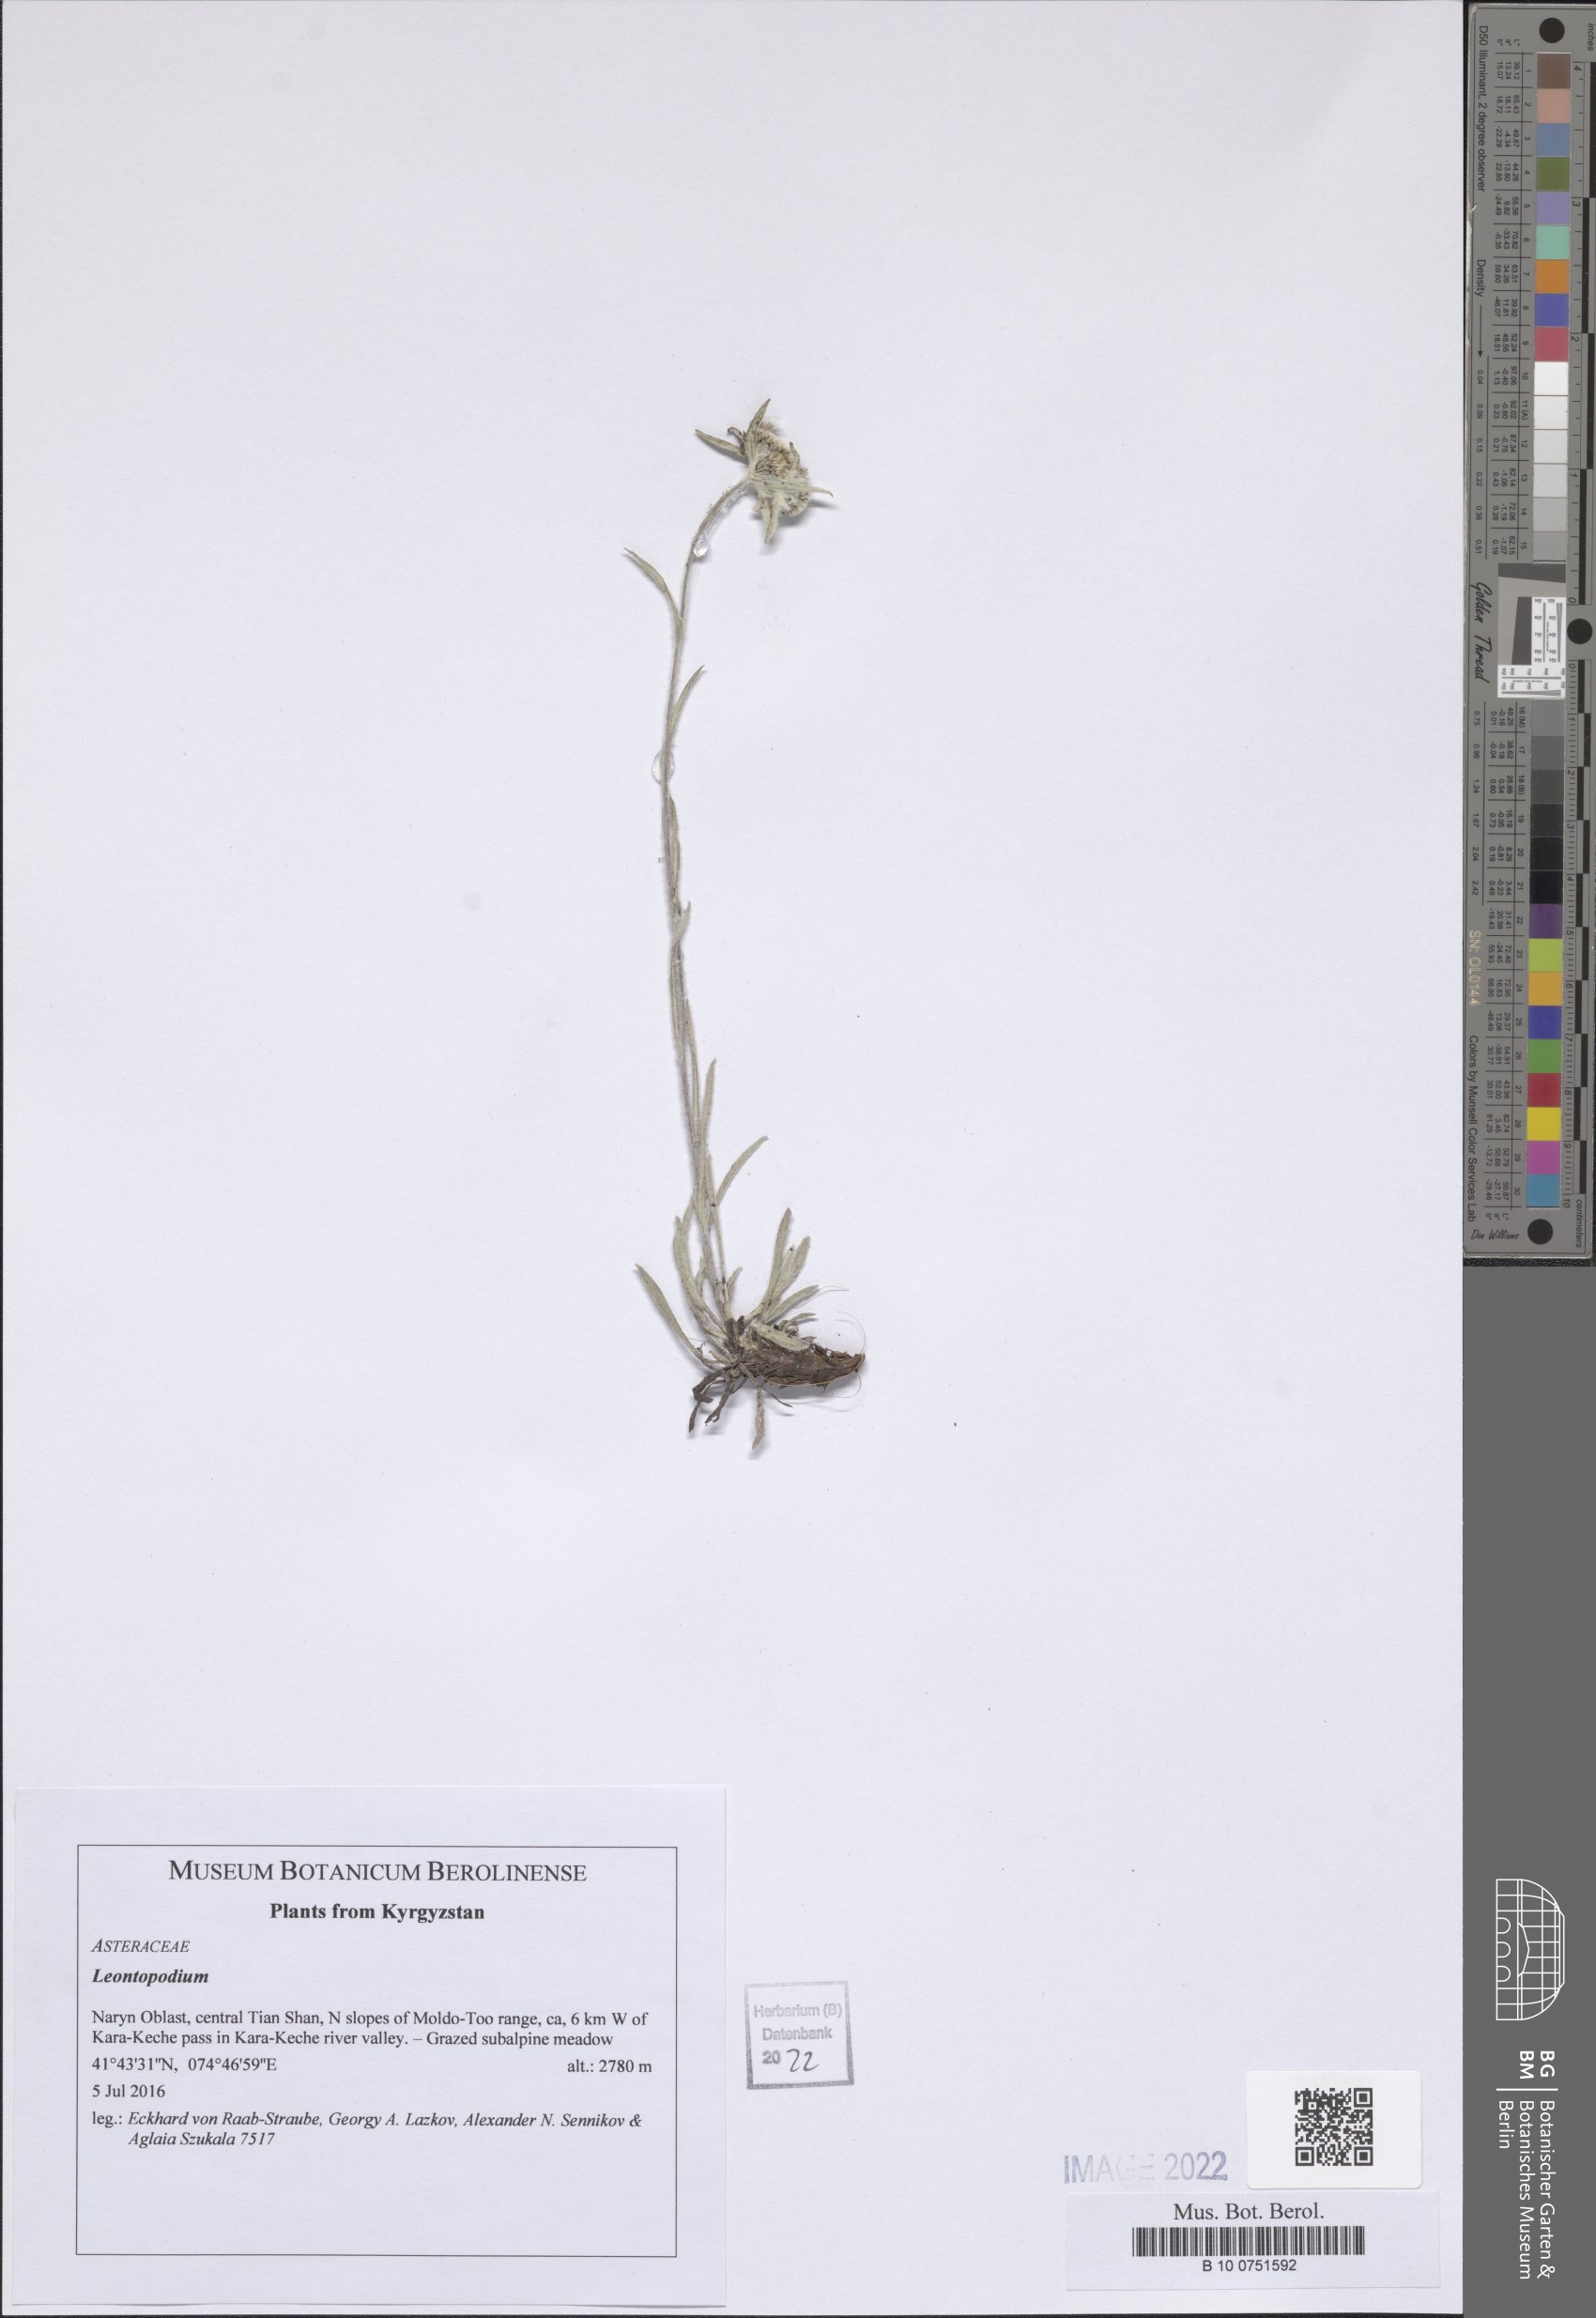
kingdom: Plantae
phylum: Tracheophyta
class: Magnoliopsida
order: Asterales
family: Asteraceae
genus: Leontopodium
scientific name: Leontopodium
